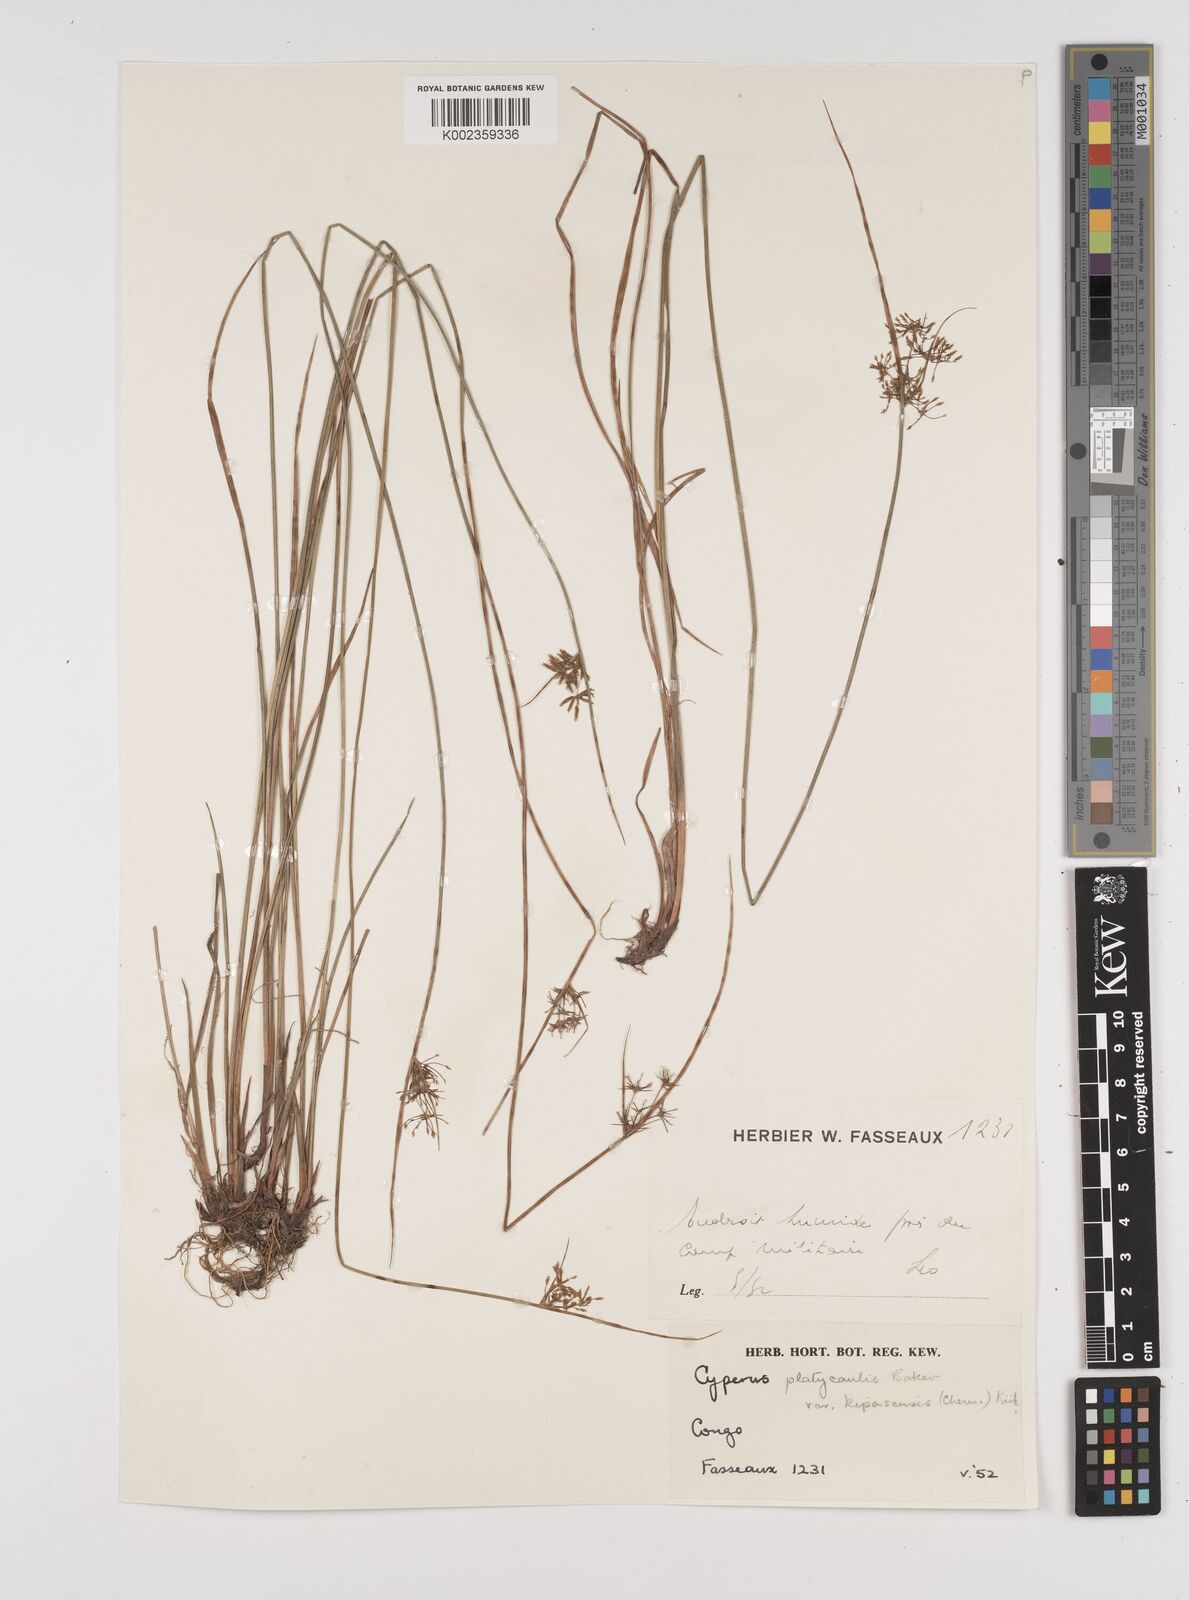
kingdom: Plantae
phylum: Tracheophyta
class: Liliopsida
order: Poales
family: Cyperaceae
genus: Cyperus
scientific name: Cyperus kipasensis
